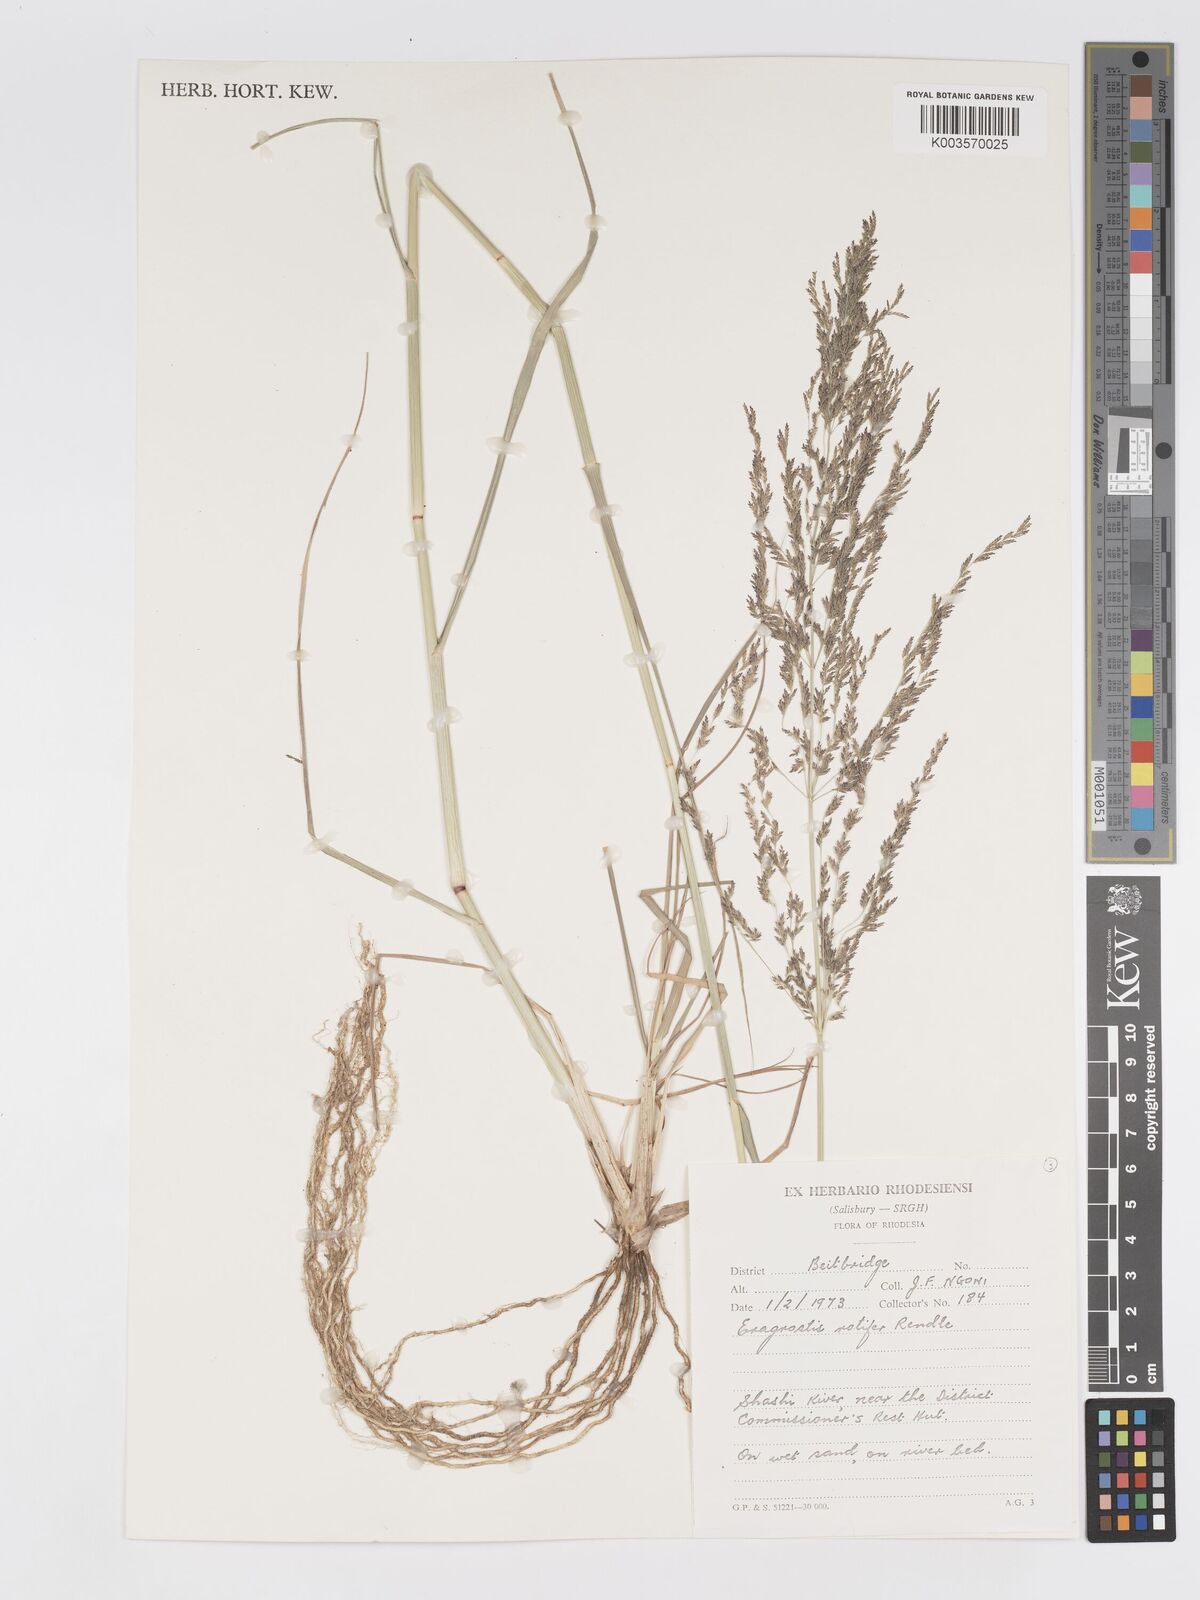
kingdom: Plantae
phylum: Tracheophyta
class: Liliopsida
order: Poales
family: Poaceae
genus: Eragrostis
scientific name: Eragrostis rotifer
